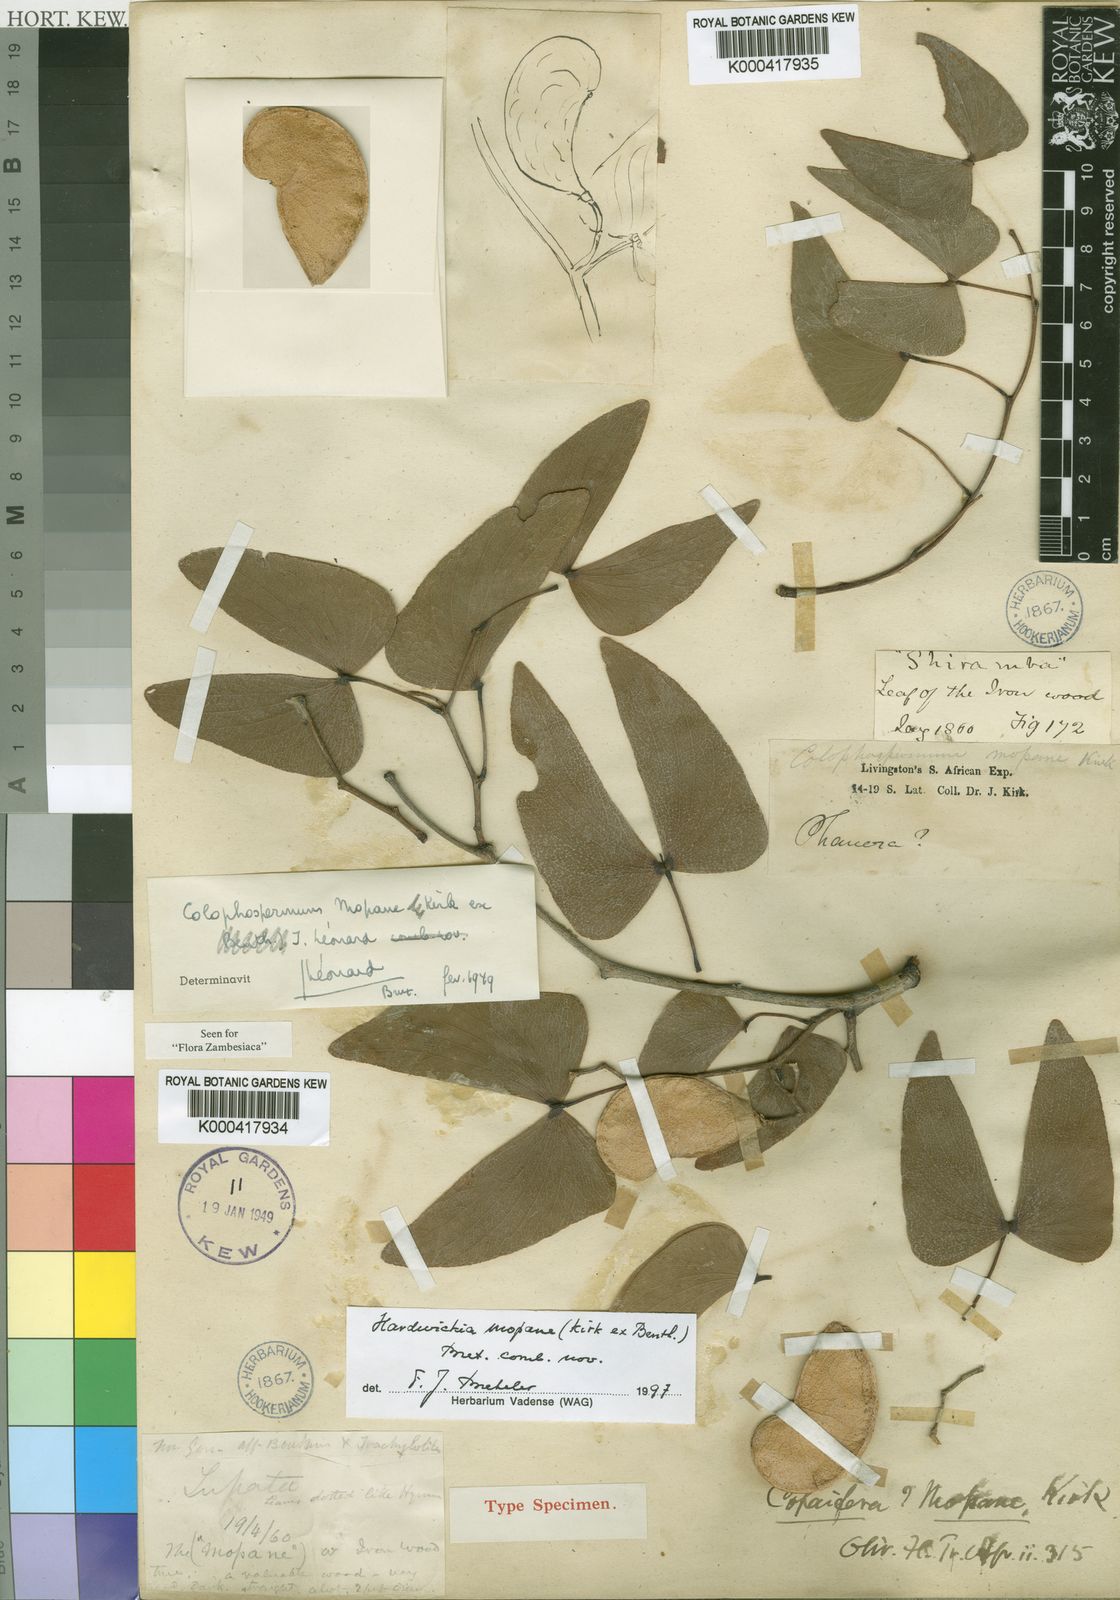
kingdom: Plantae
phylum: Tracheophyta
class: Magnoliopsida
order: Fabales
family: Fabaceae
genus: Colophospermum
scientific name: Colophospermum
